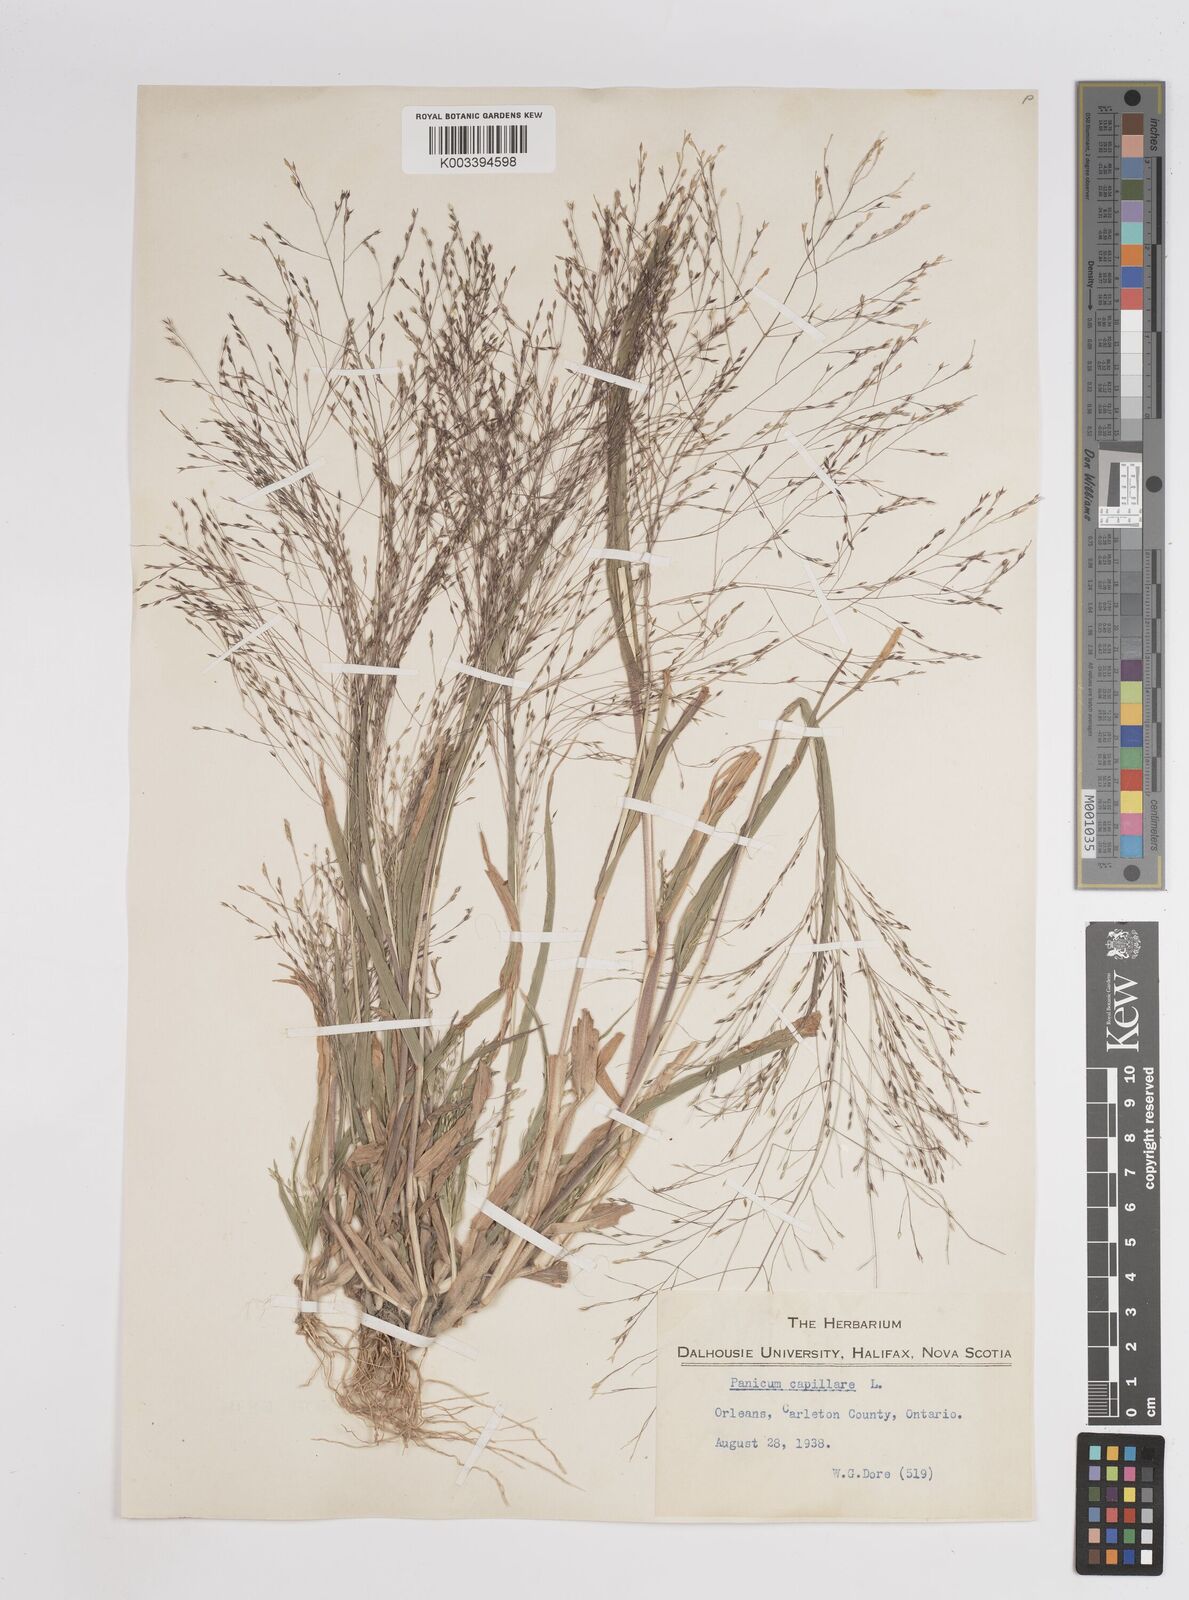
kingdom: Plantae
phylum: Tracheophyta
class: Liliopsida
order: Poales
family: Poaceae
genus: Panicum
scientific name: Panicum capillare
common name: Witch-grass
